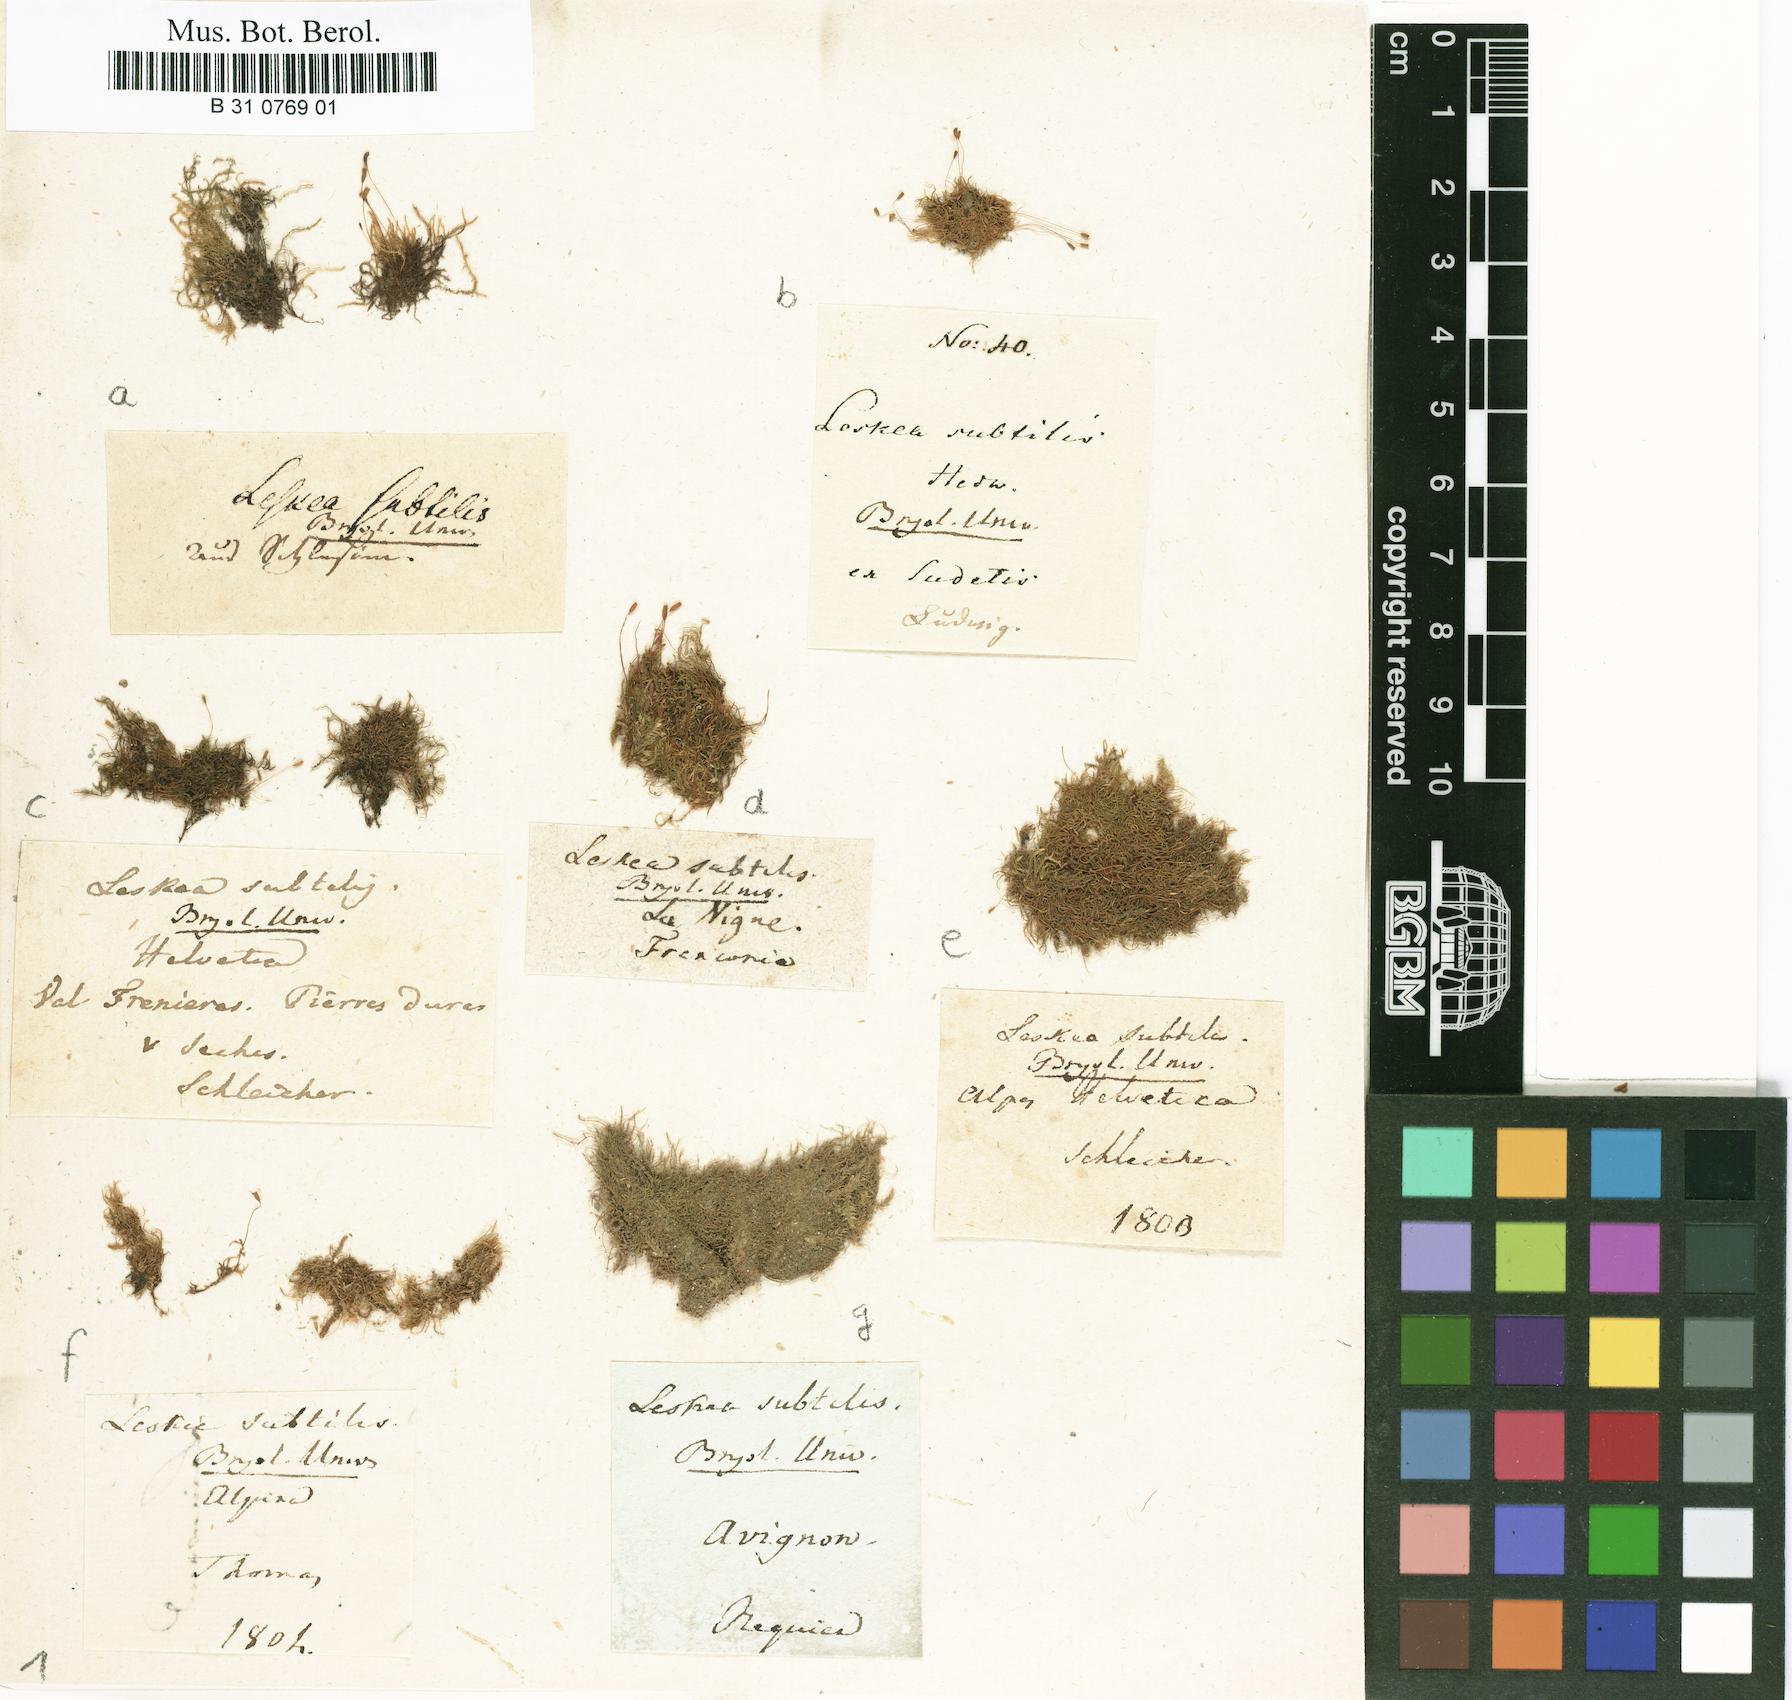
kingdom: Plantae
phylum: Bryophyta
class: Bryopsida
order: Hypnales
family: Amblystegiaceae
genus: Pseudoamblystegium
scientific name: Pseudoamblystegium subtile
